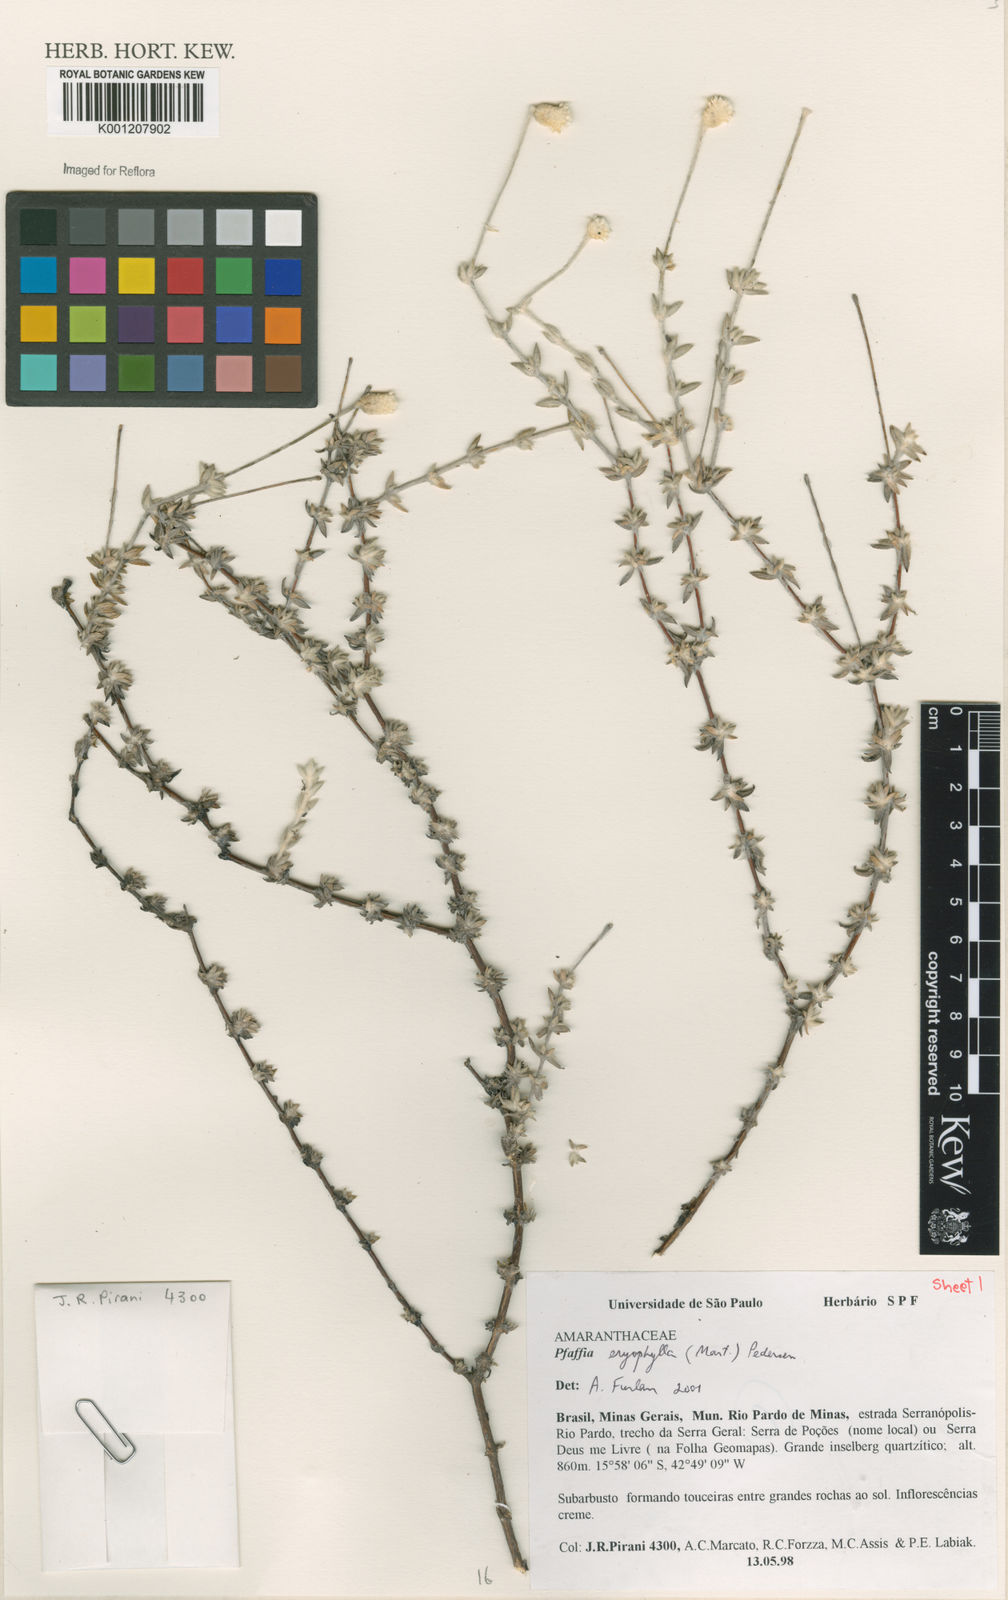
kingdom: Plantae
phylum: Tracheophyta
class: Magnoliopsida
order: Caryophyllales
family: Amaranthaceae
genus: Gomphrena
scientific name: Gomphrena eriophylla
